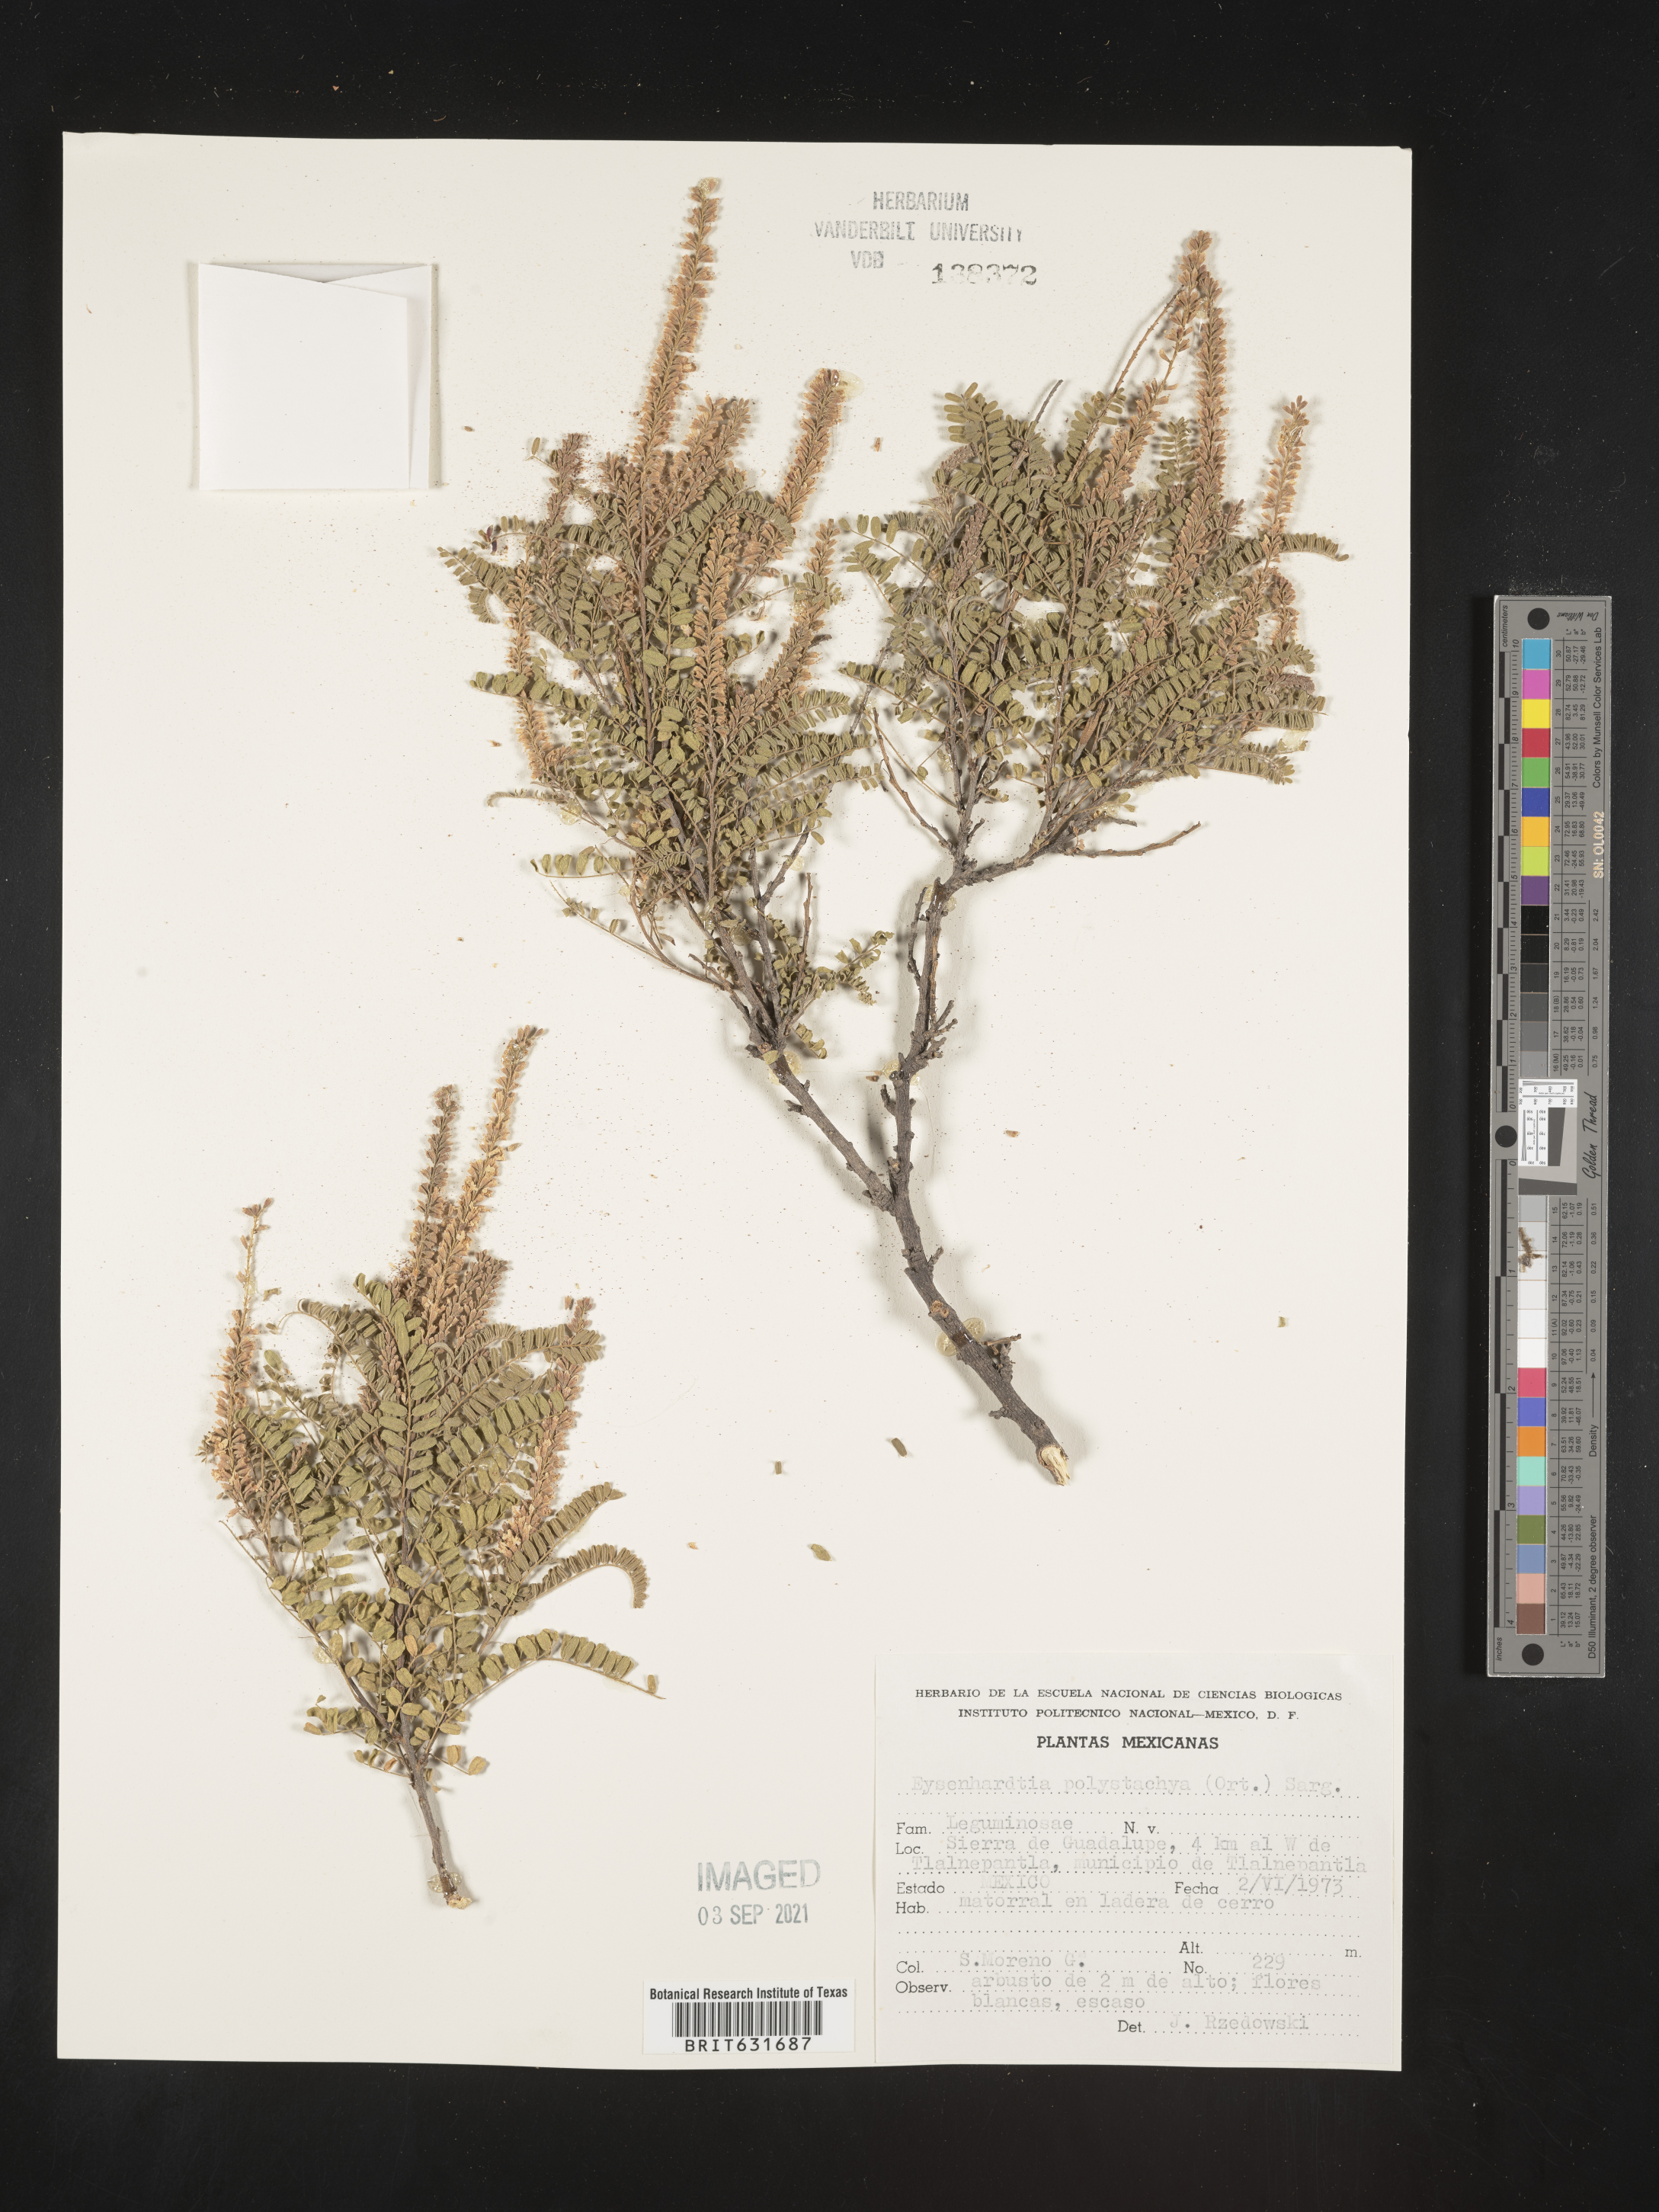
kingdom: Plantae
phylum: Tracheophyta
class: Magnoliopsida
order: Fabales
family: Fabaceae
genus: Eysenhardtia
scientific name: Eysenhardtia
